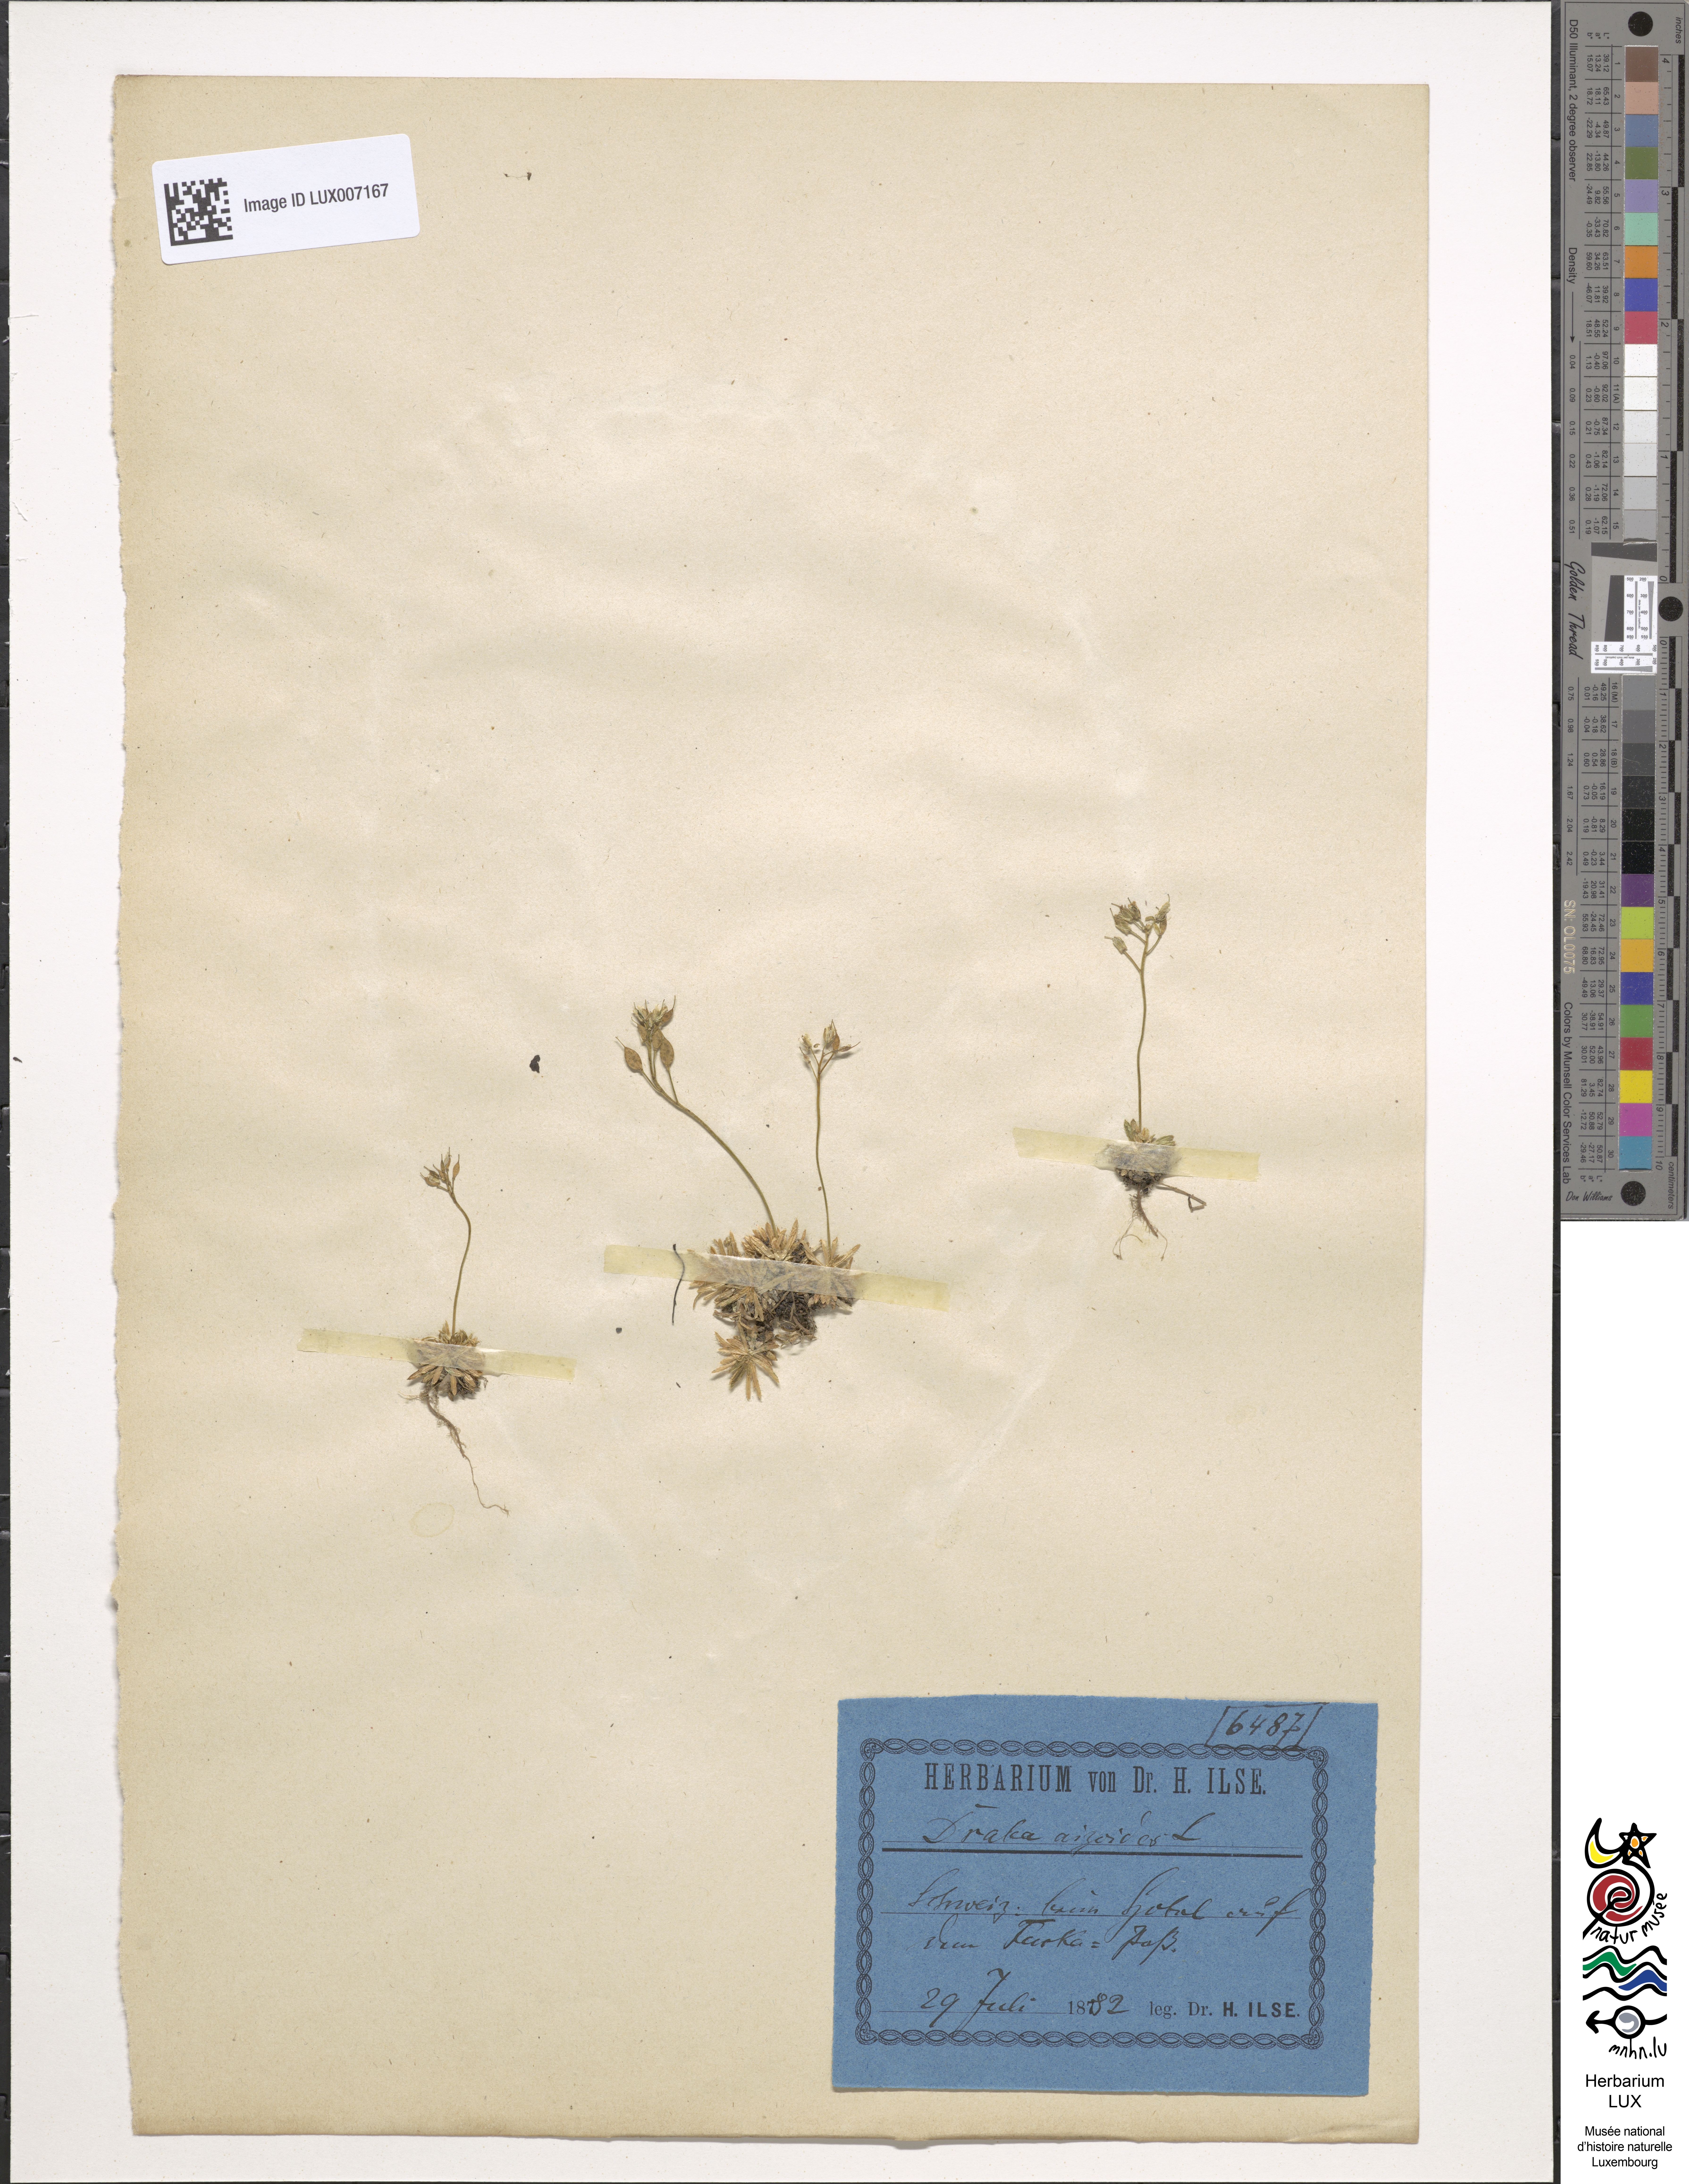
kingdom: Plantae
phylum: Tracheophyta
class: Magnoliopsida
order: Brassicales
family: Brassicaceae
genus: Draba
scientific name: Draba aizoides
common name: Yellow whitlowgrass
